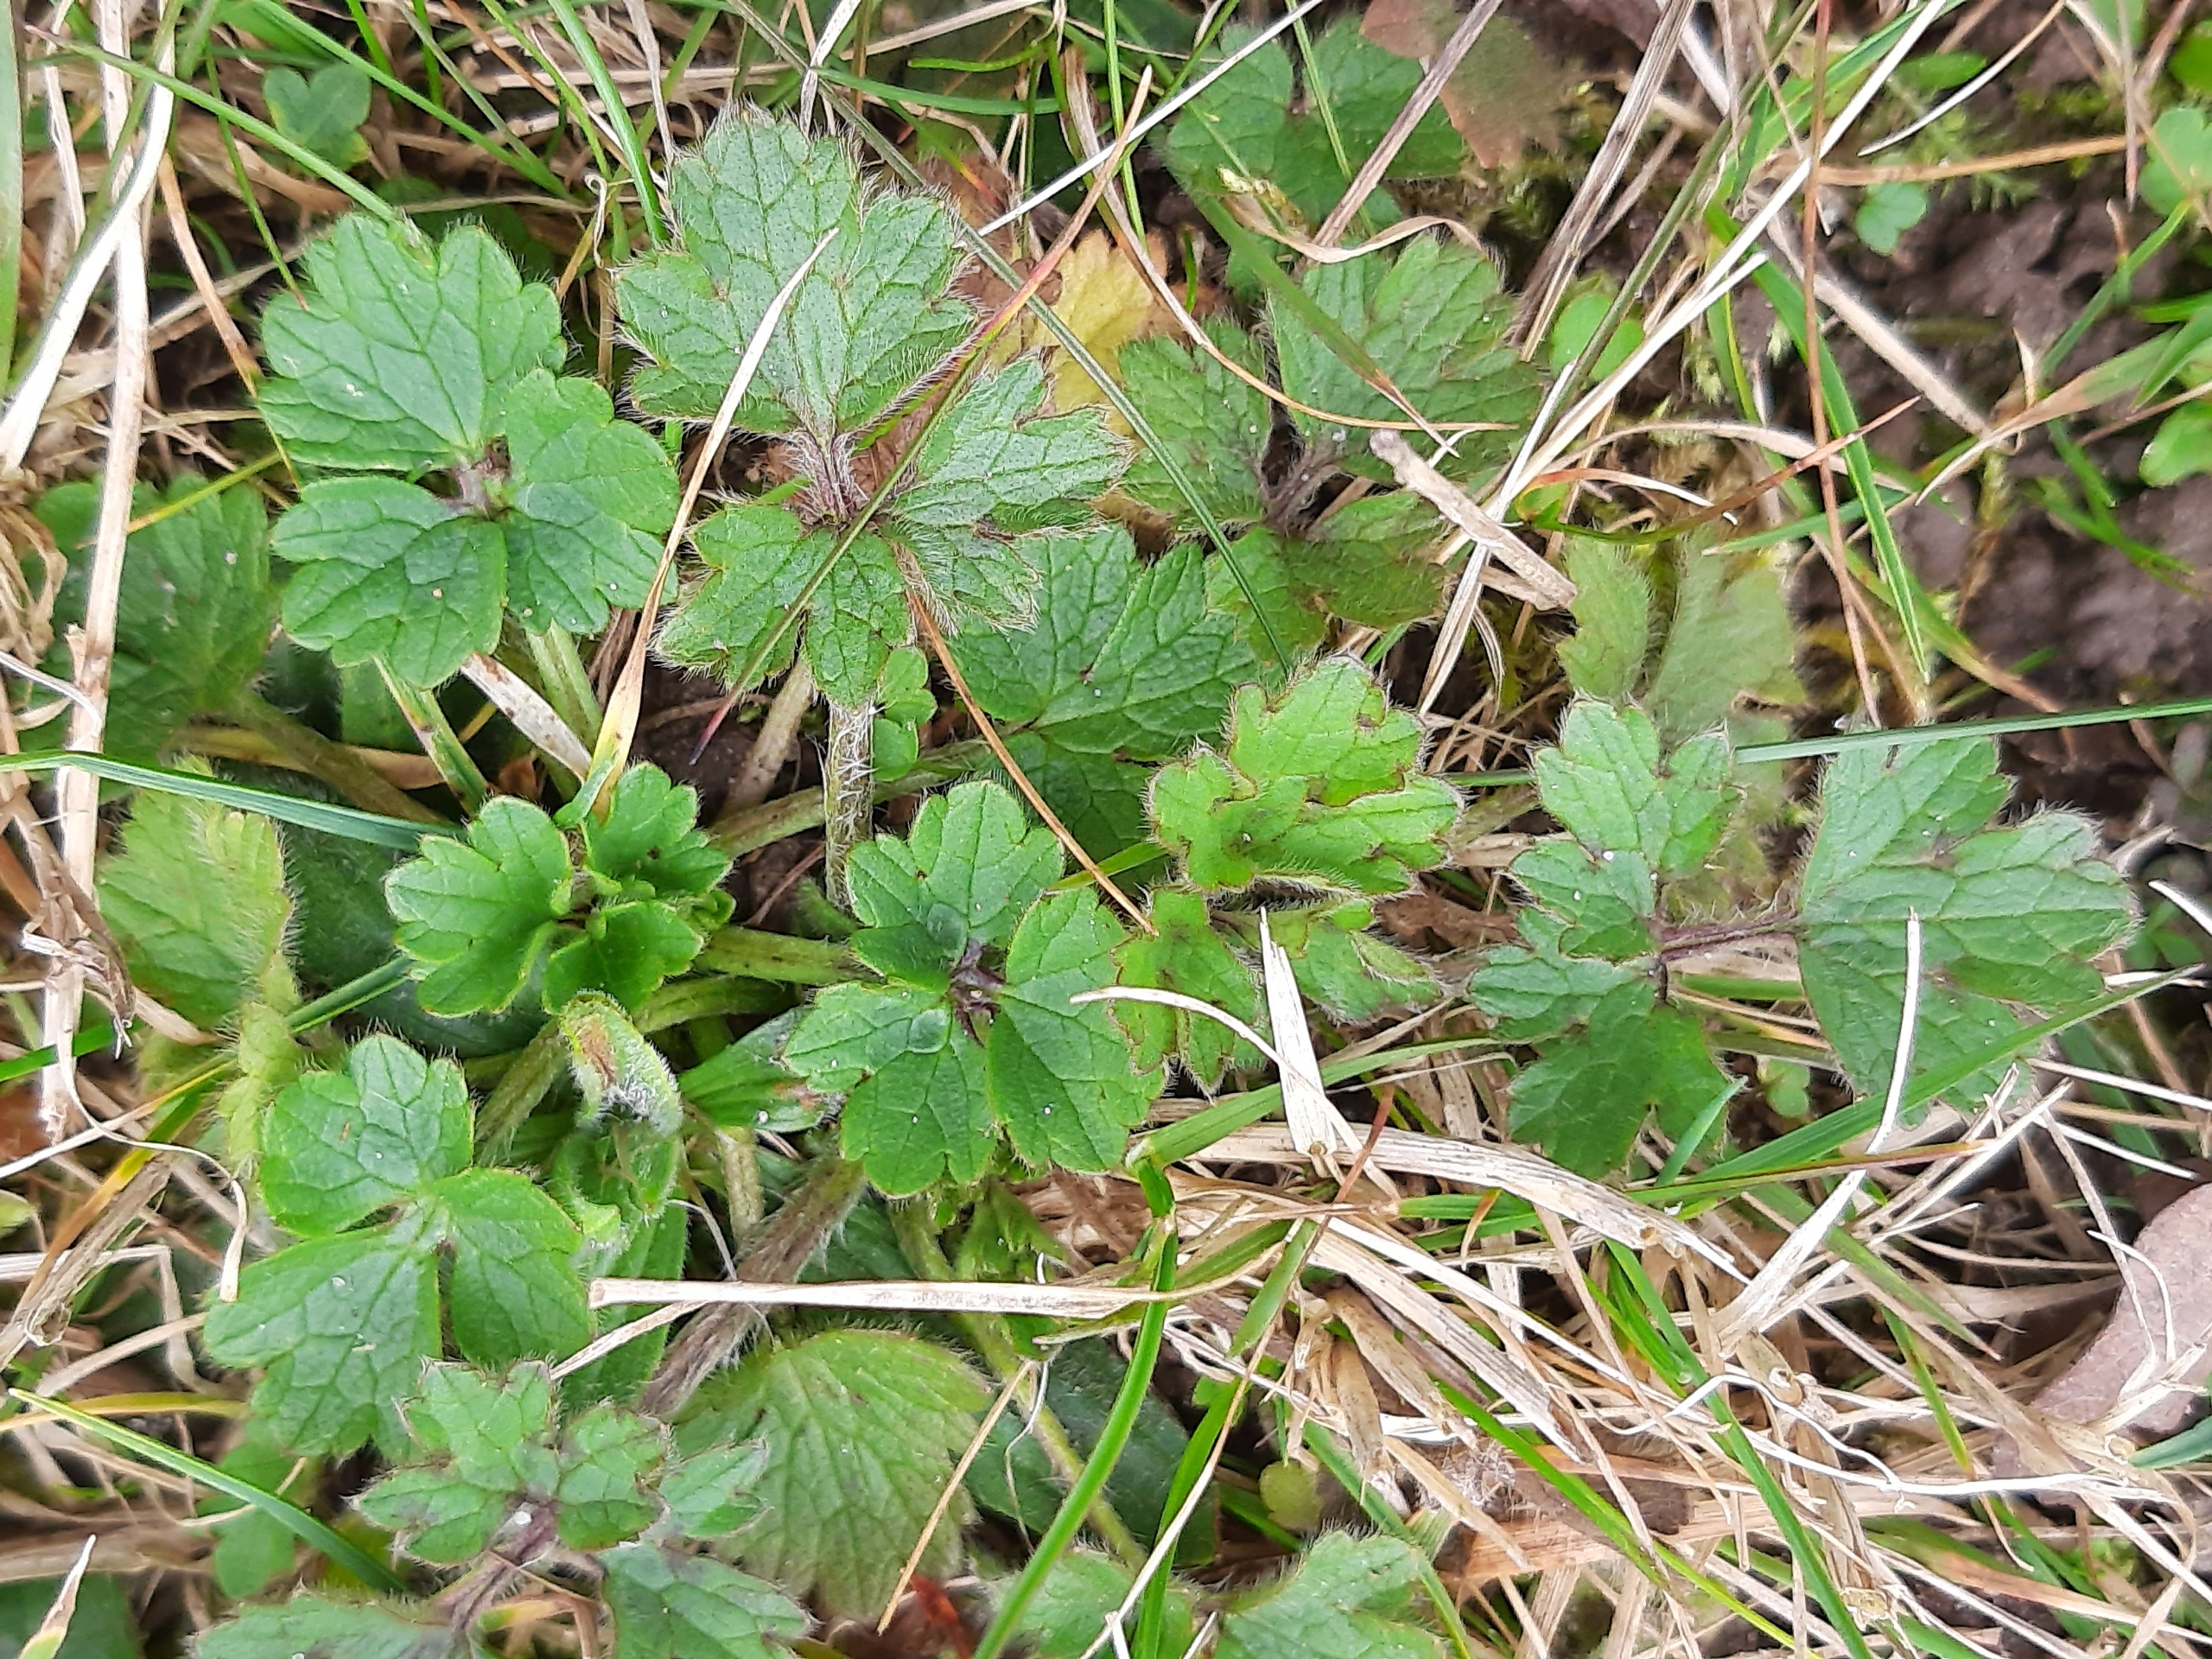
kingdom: Plantae
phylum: Tracheophyta
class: Magnoliopsida
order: Ranunculales
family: Ranunculaceae
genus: Ranunculus
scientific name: Ranunculus bulbosus
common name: Knold-ranunkel
